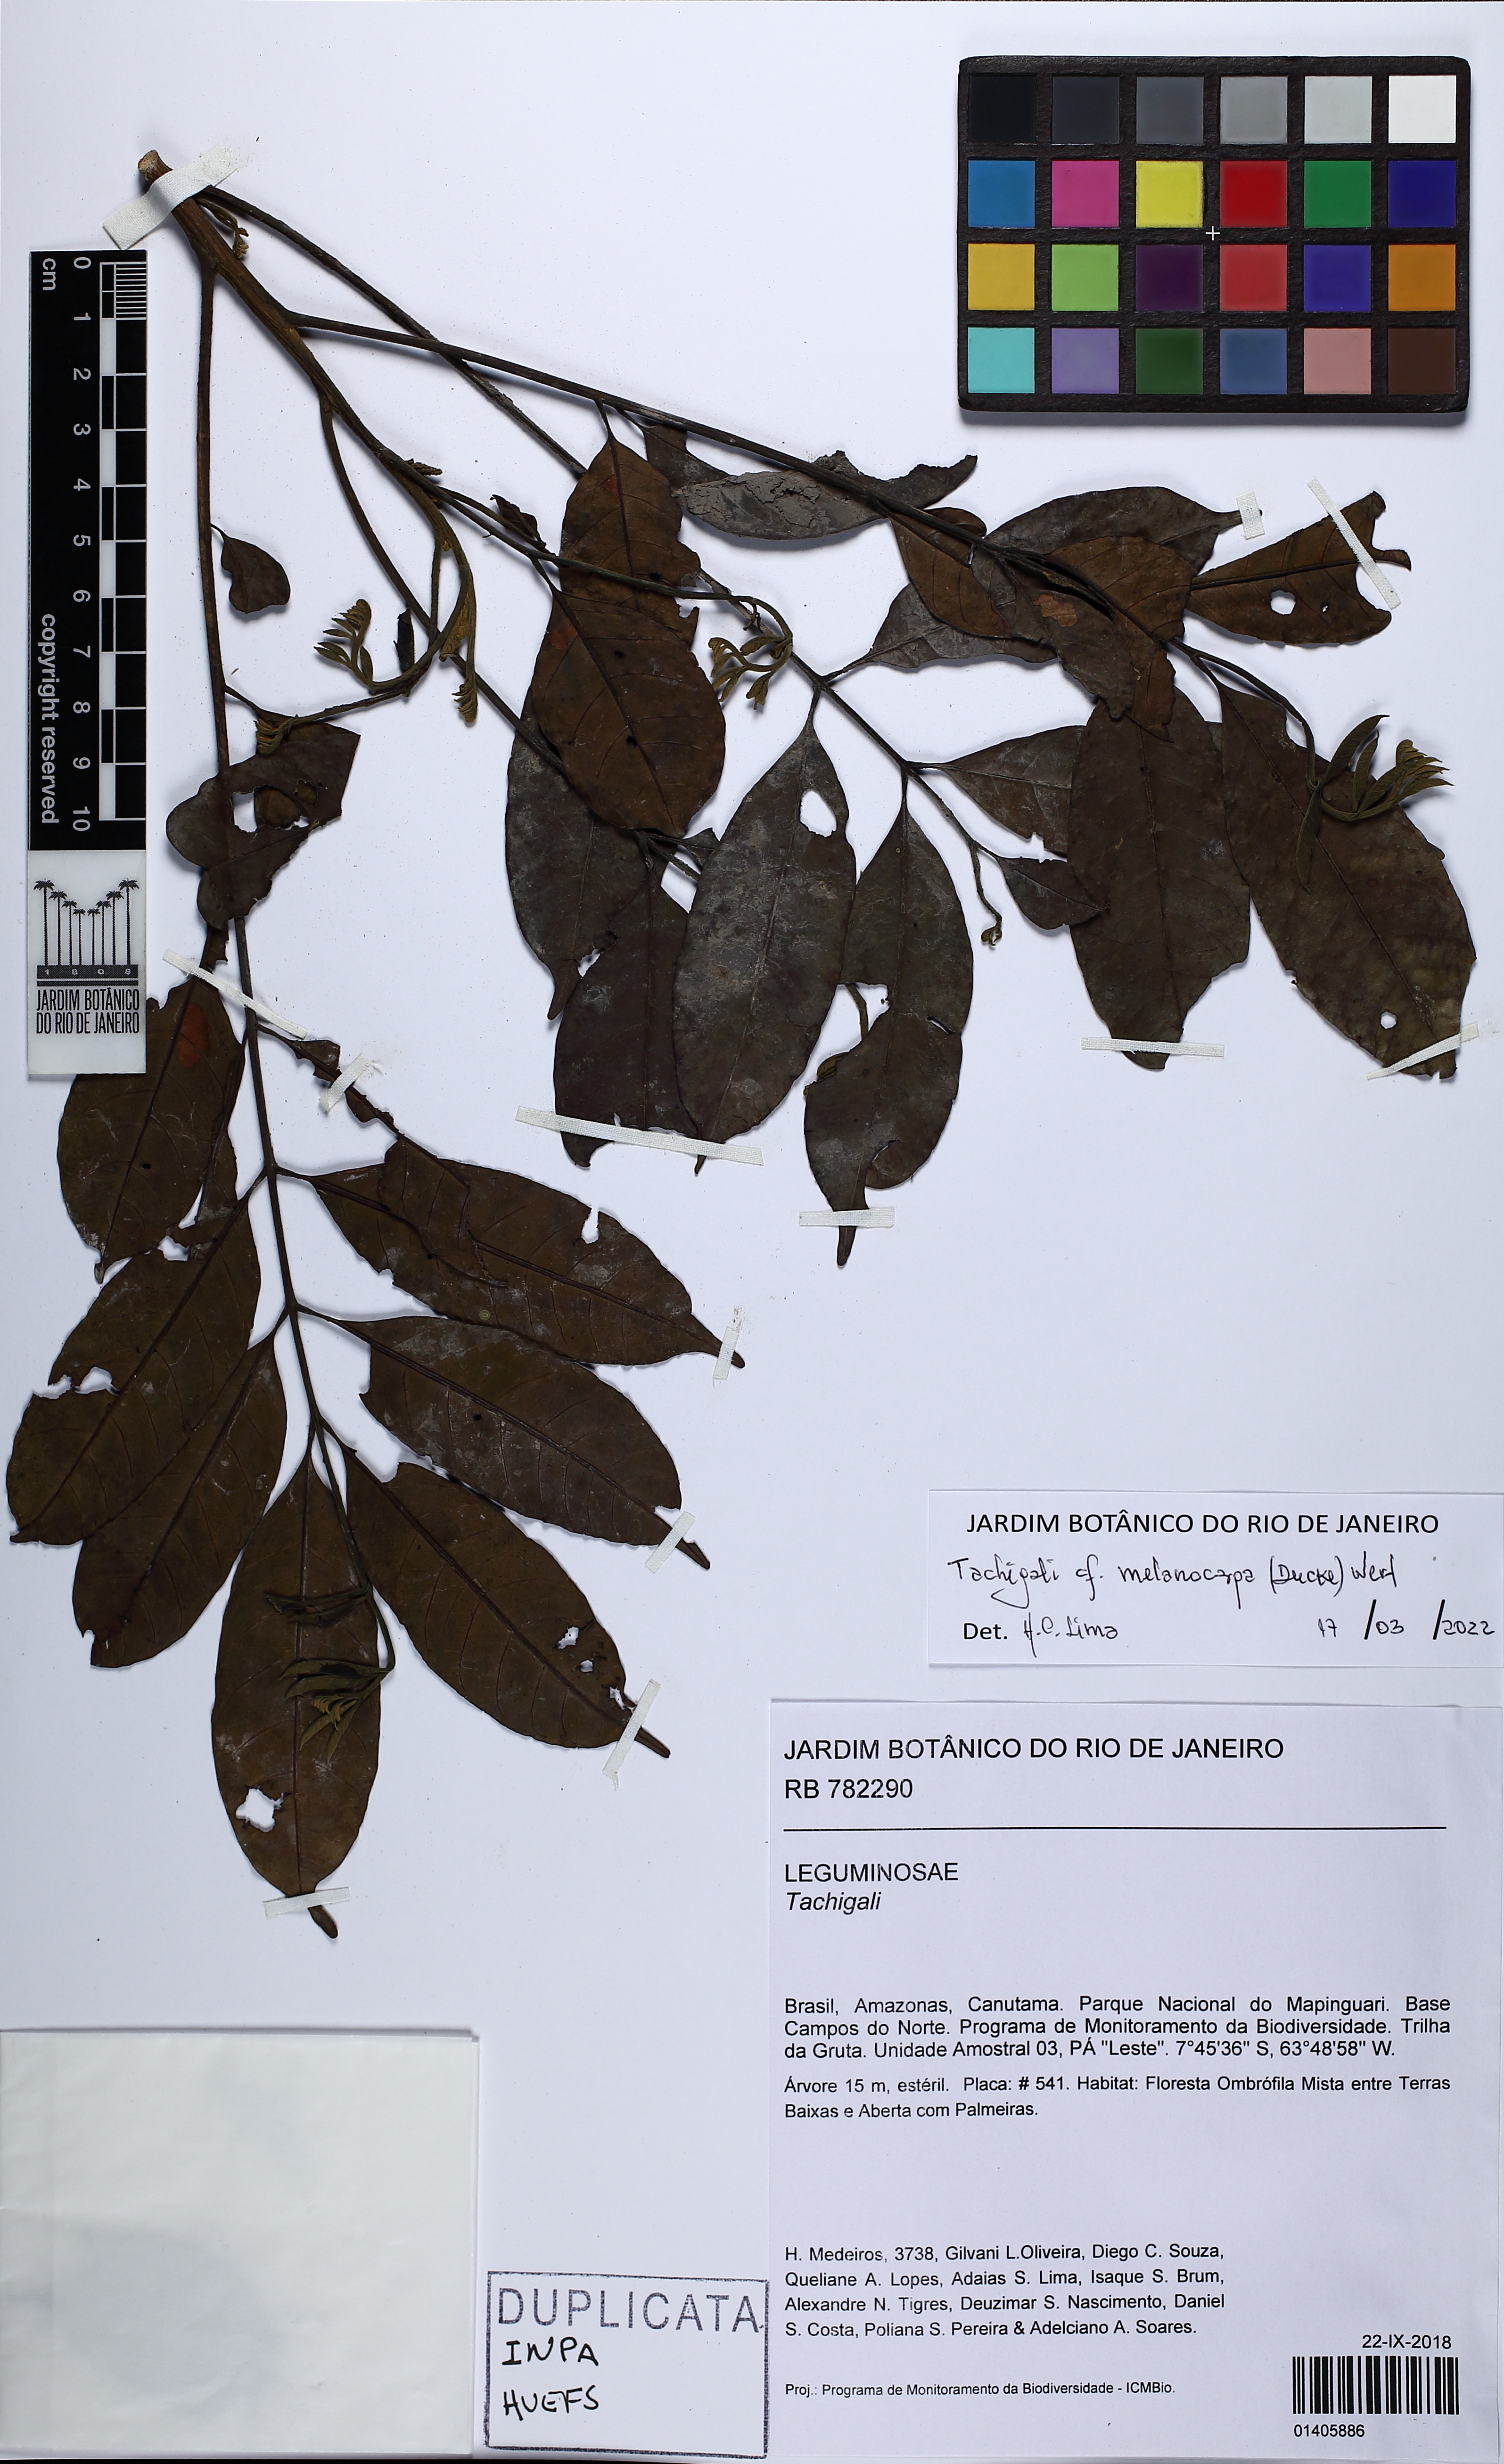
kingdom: Plantae
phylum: Tracheophyta
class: Magnoliopsida
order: Fabales
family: Fabaceae
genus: Tachigali
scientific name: Tachigali melanocarpa
